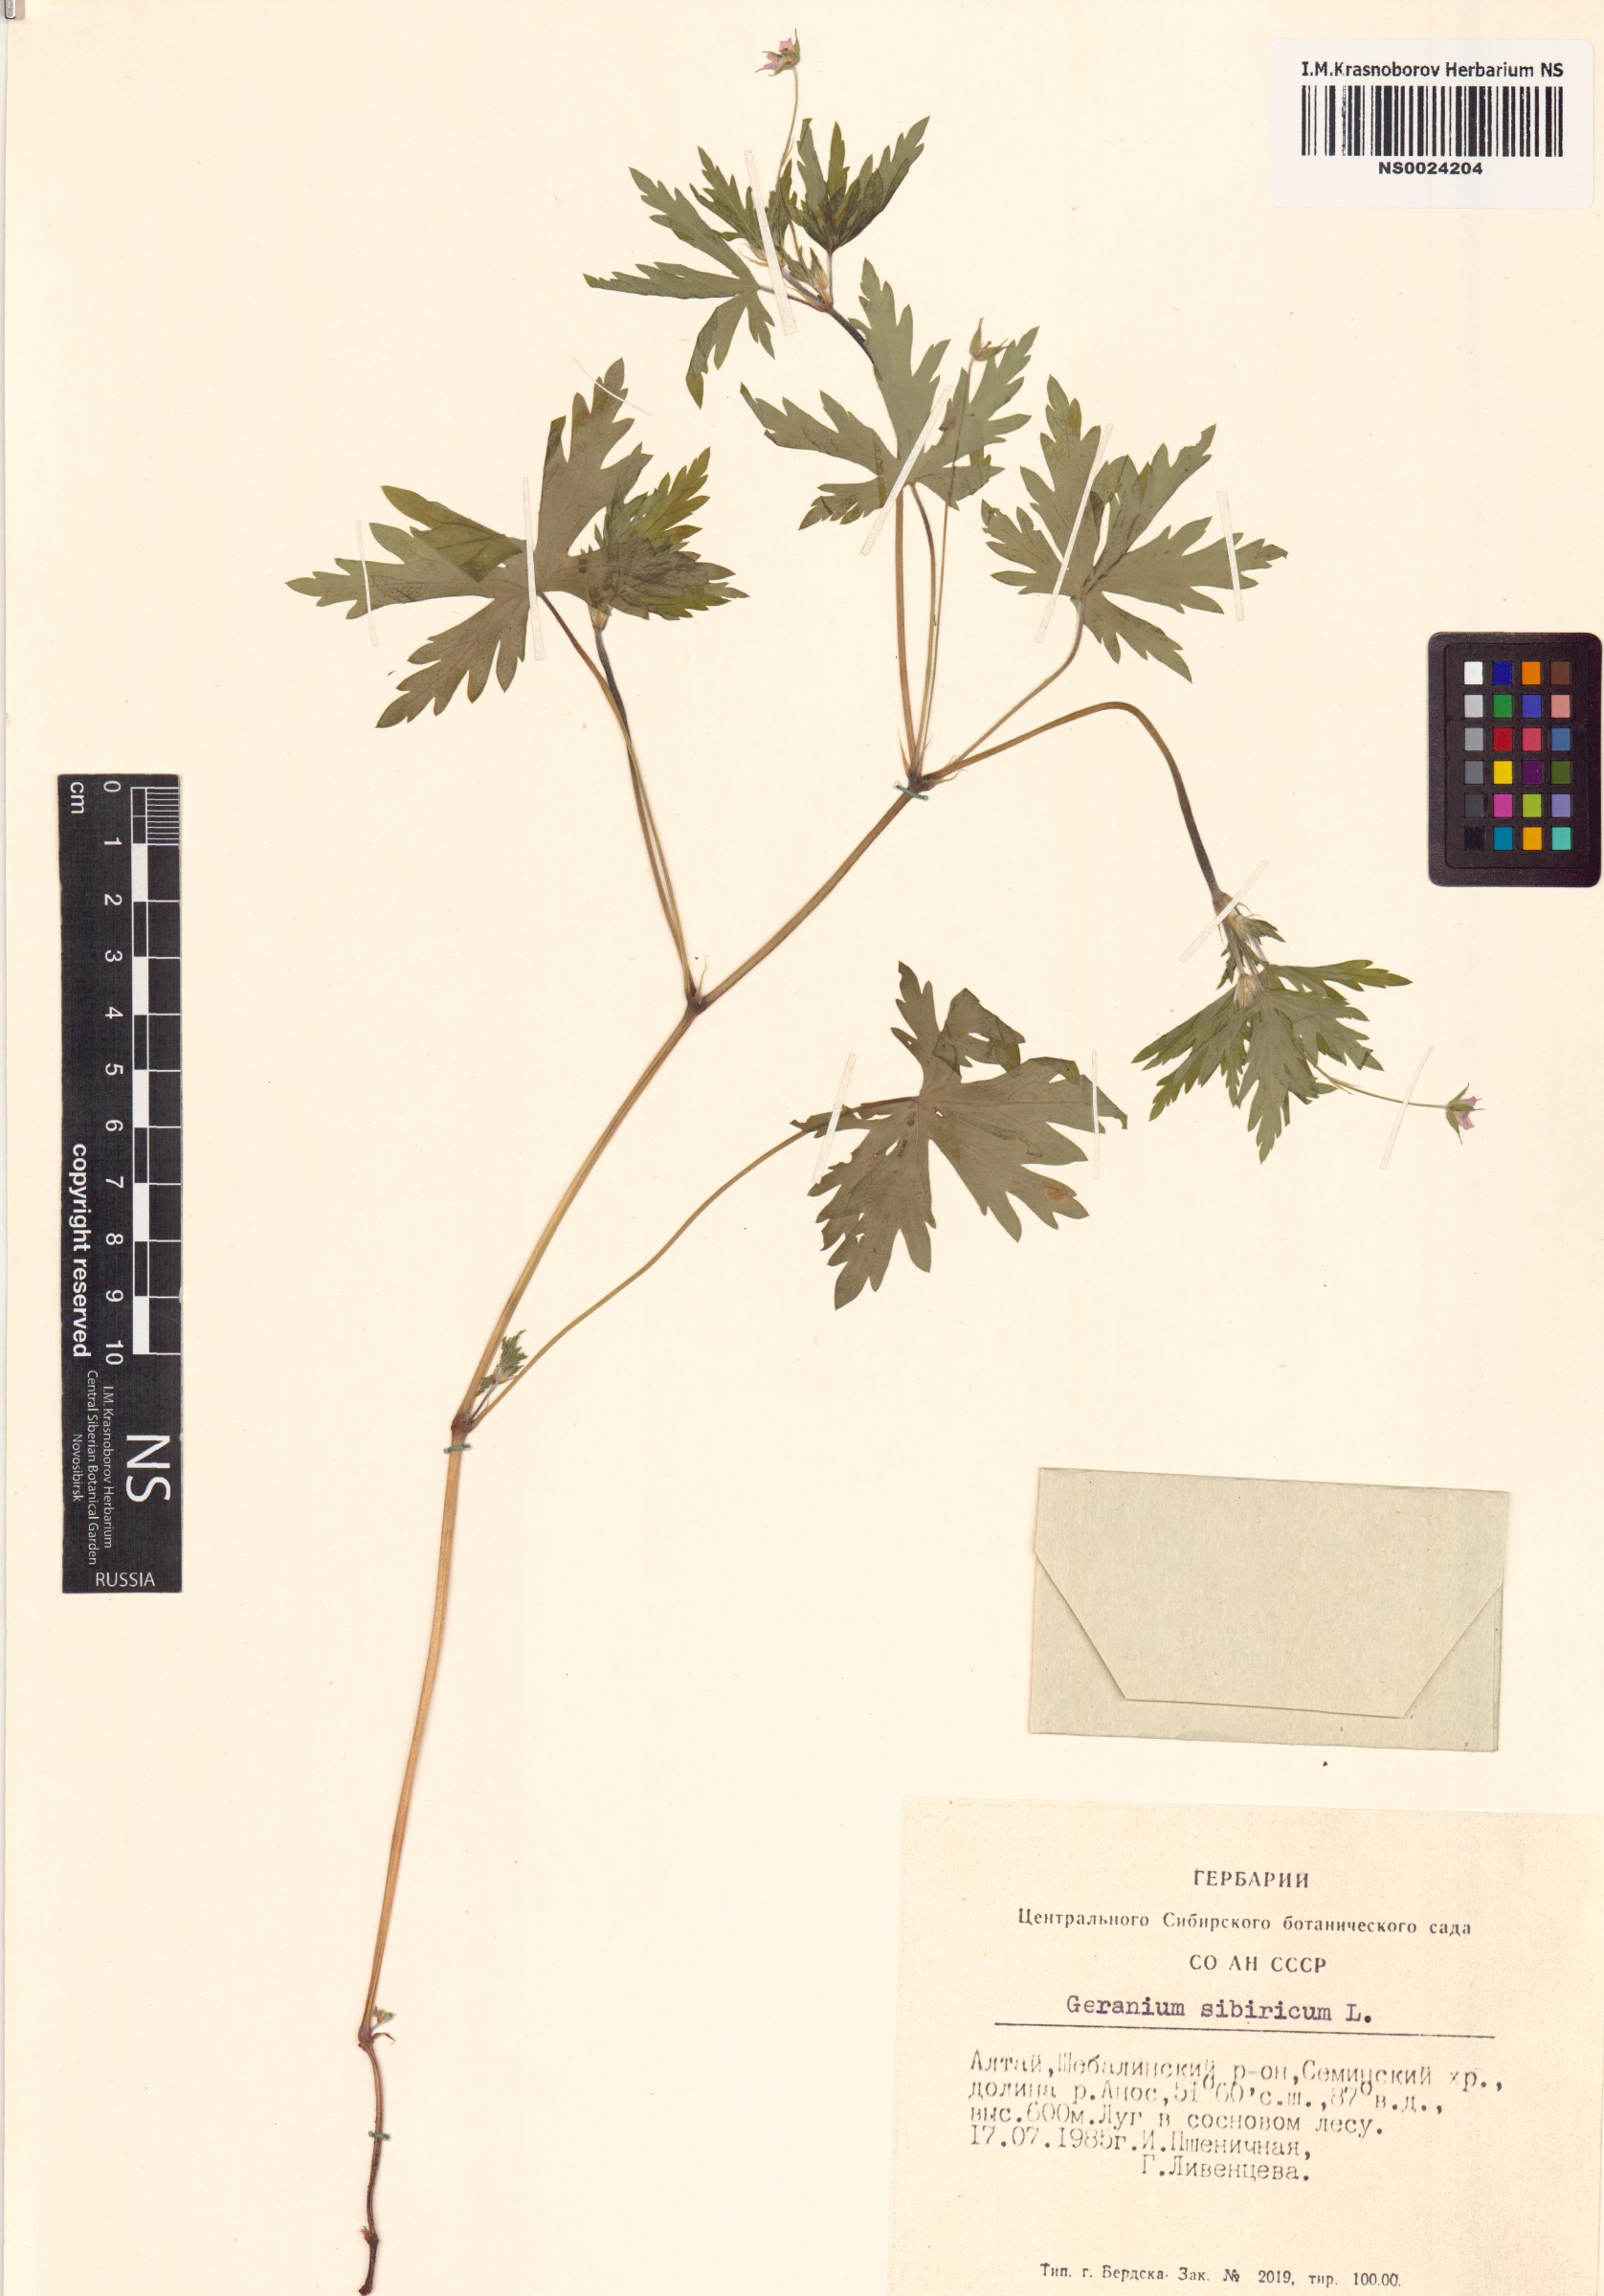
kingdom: Plantae
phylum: Tracheophyta
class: Magnoliopsida
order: Geraniales
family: Geraniaceae
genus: Geranium
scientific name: Geranium sibiricum
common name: Siberian crane's-bill
